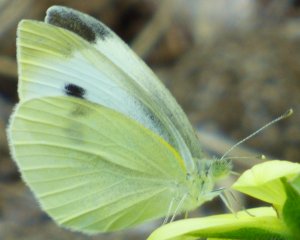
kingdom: Animalia
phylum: Arthropoda
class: Insecta
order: Lepidoptera
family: Pieridae
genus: Pieris
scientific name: Pieris rapae
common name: Cabbage White
